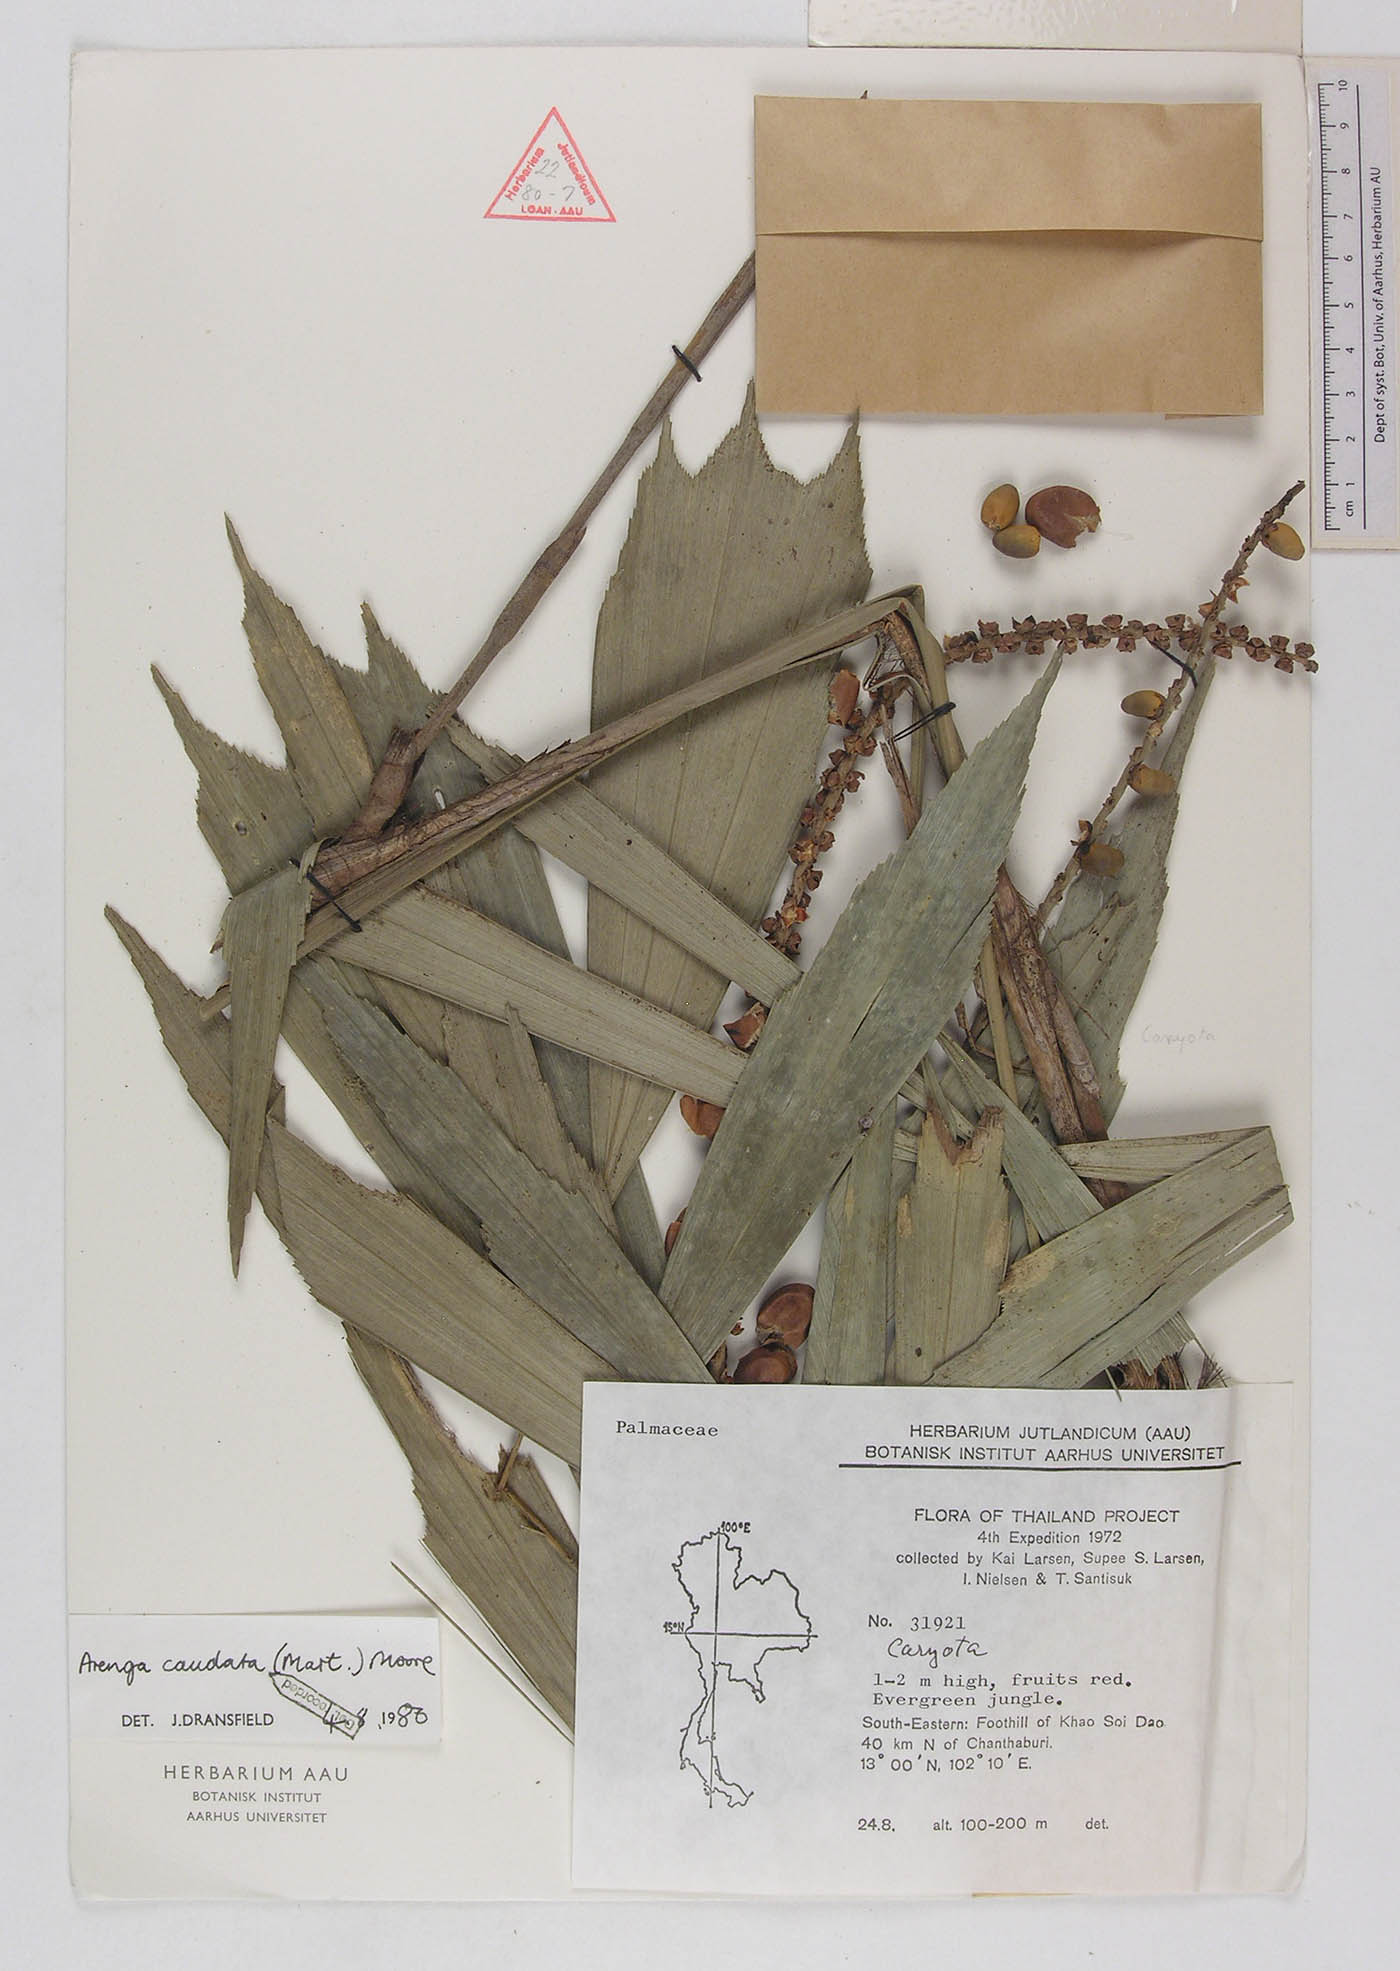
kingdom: Plantae
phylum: Tracheophyta
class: Liliopsida
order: Arecales
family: Arecaceae
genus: Arenga
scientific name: Arenga caudata
